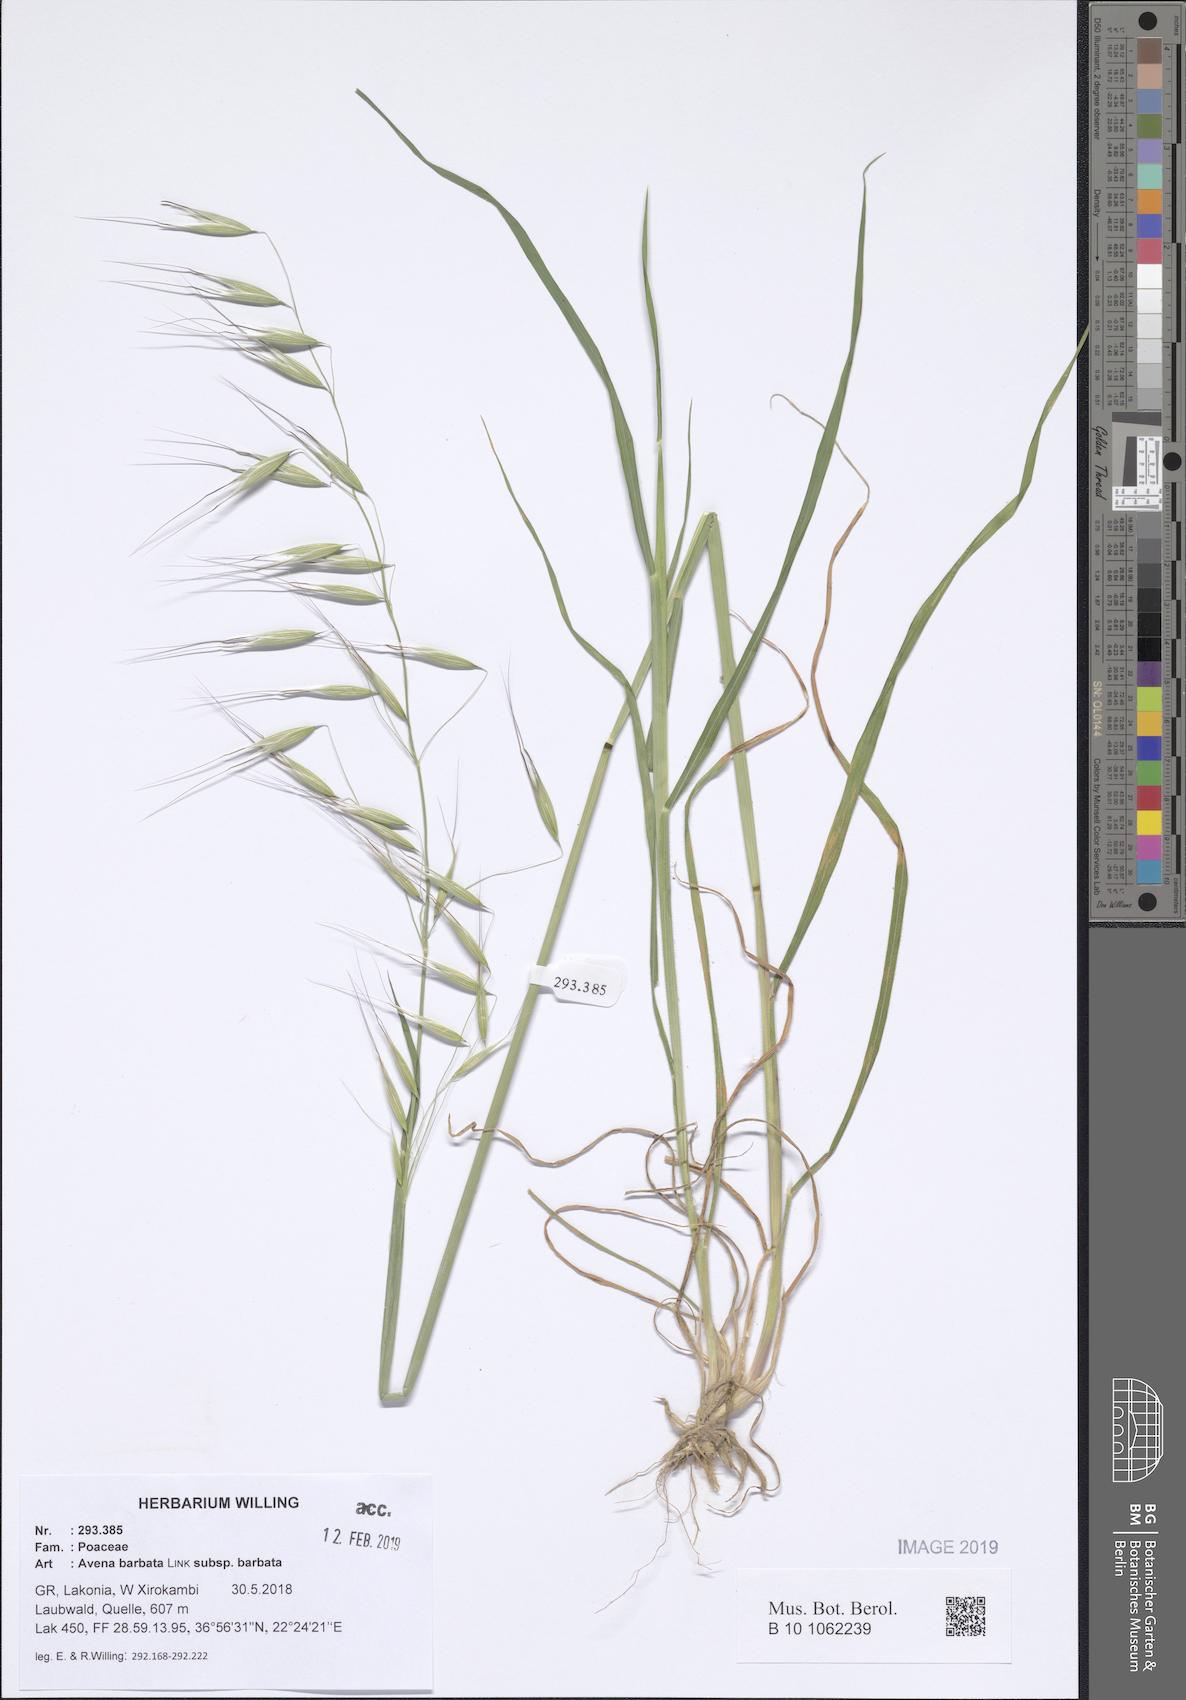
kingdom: Plantae
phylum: Tracheophyta
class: Liliopsida
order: Poales
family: Poaceae
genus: Avena
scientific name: Avena barbata
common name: Slender oat
